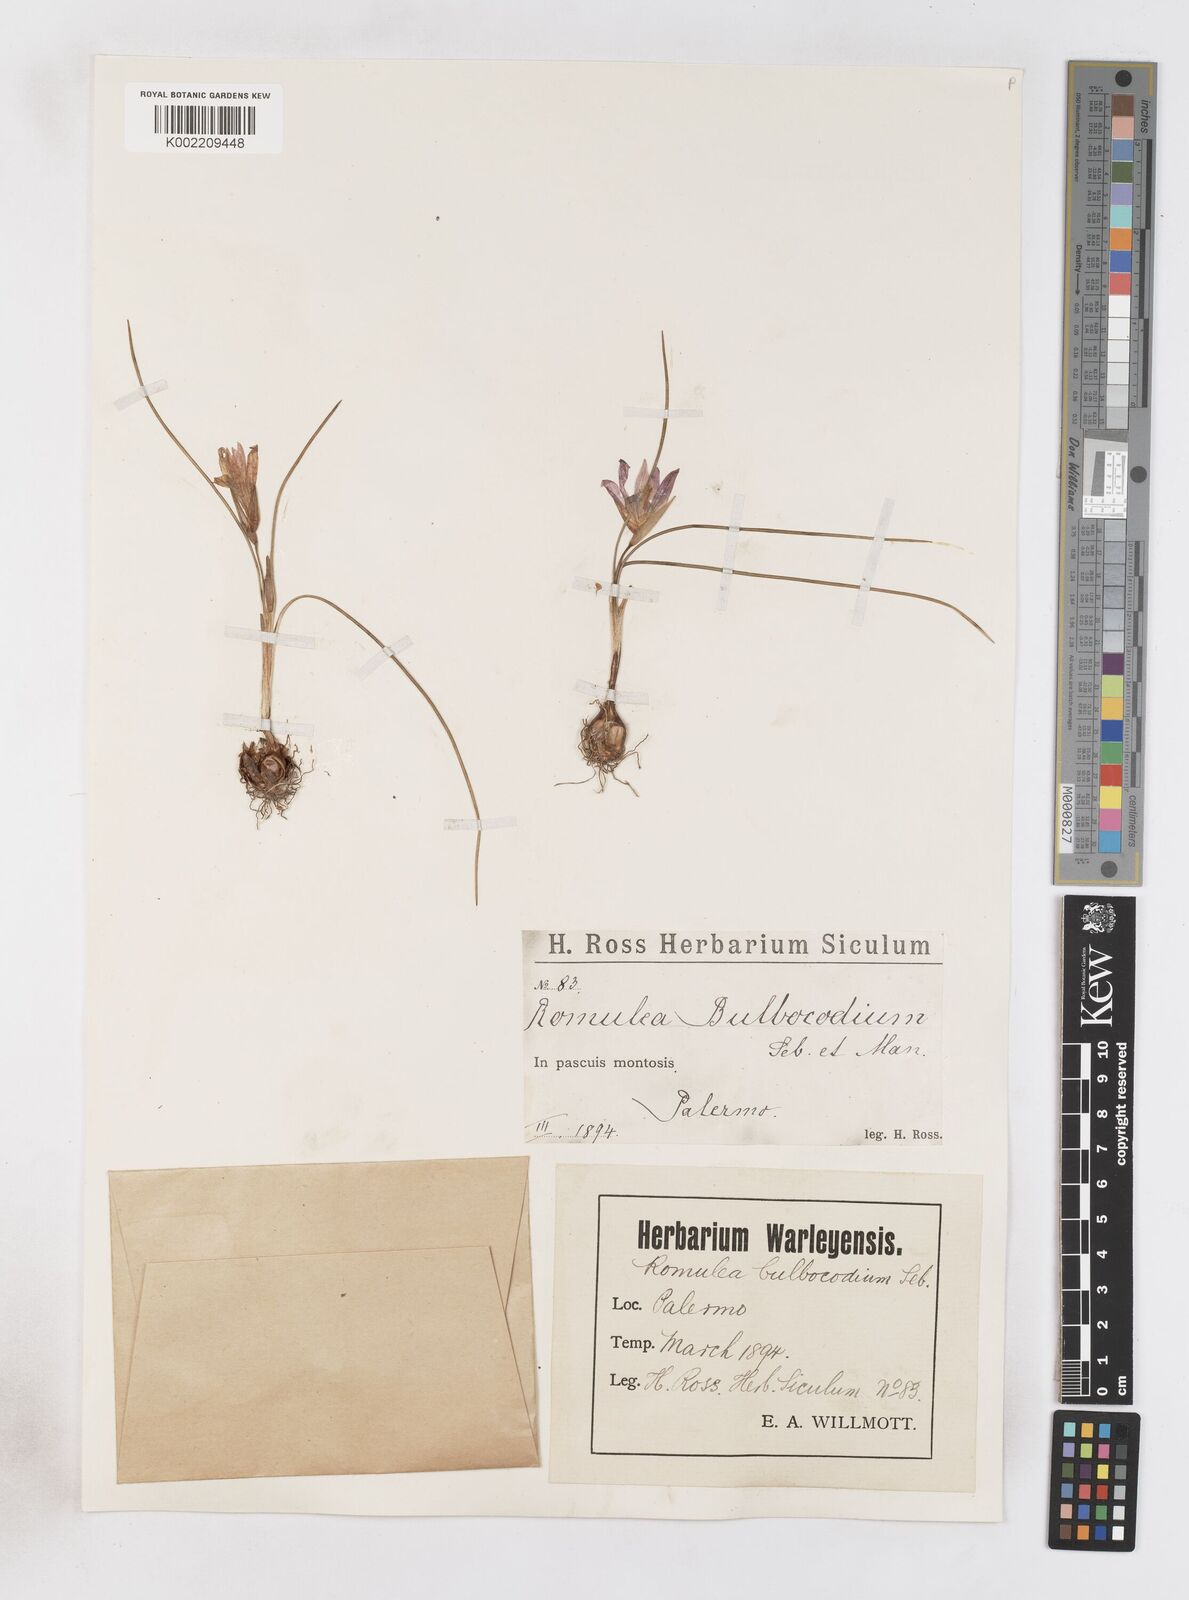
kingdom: Plantae
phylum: Tracheophyta
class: Liliopsida
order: Asparagales
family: Iridaceae
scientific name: Iridaceae
